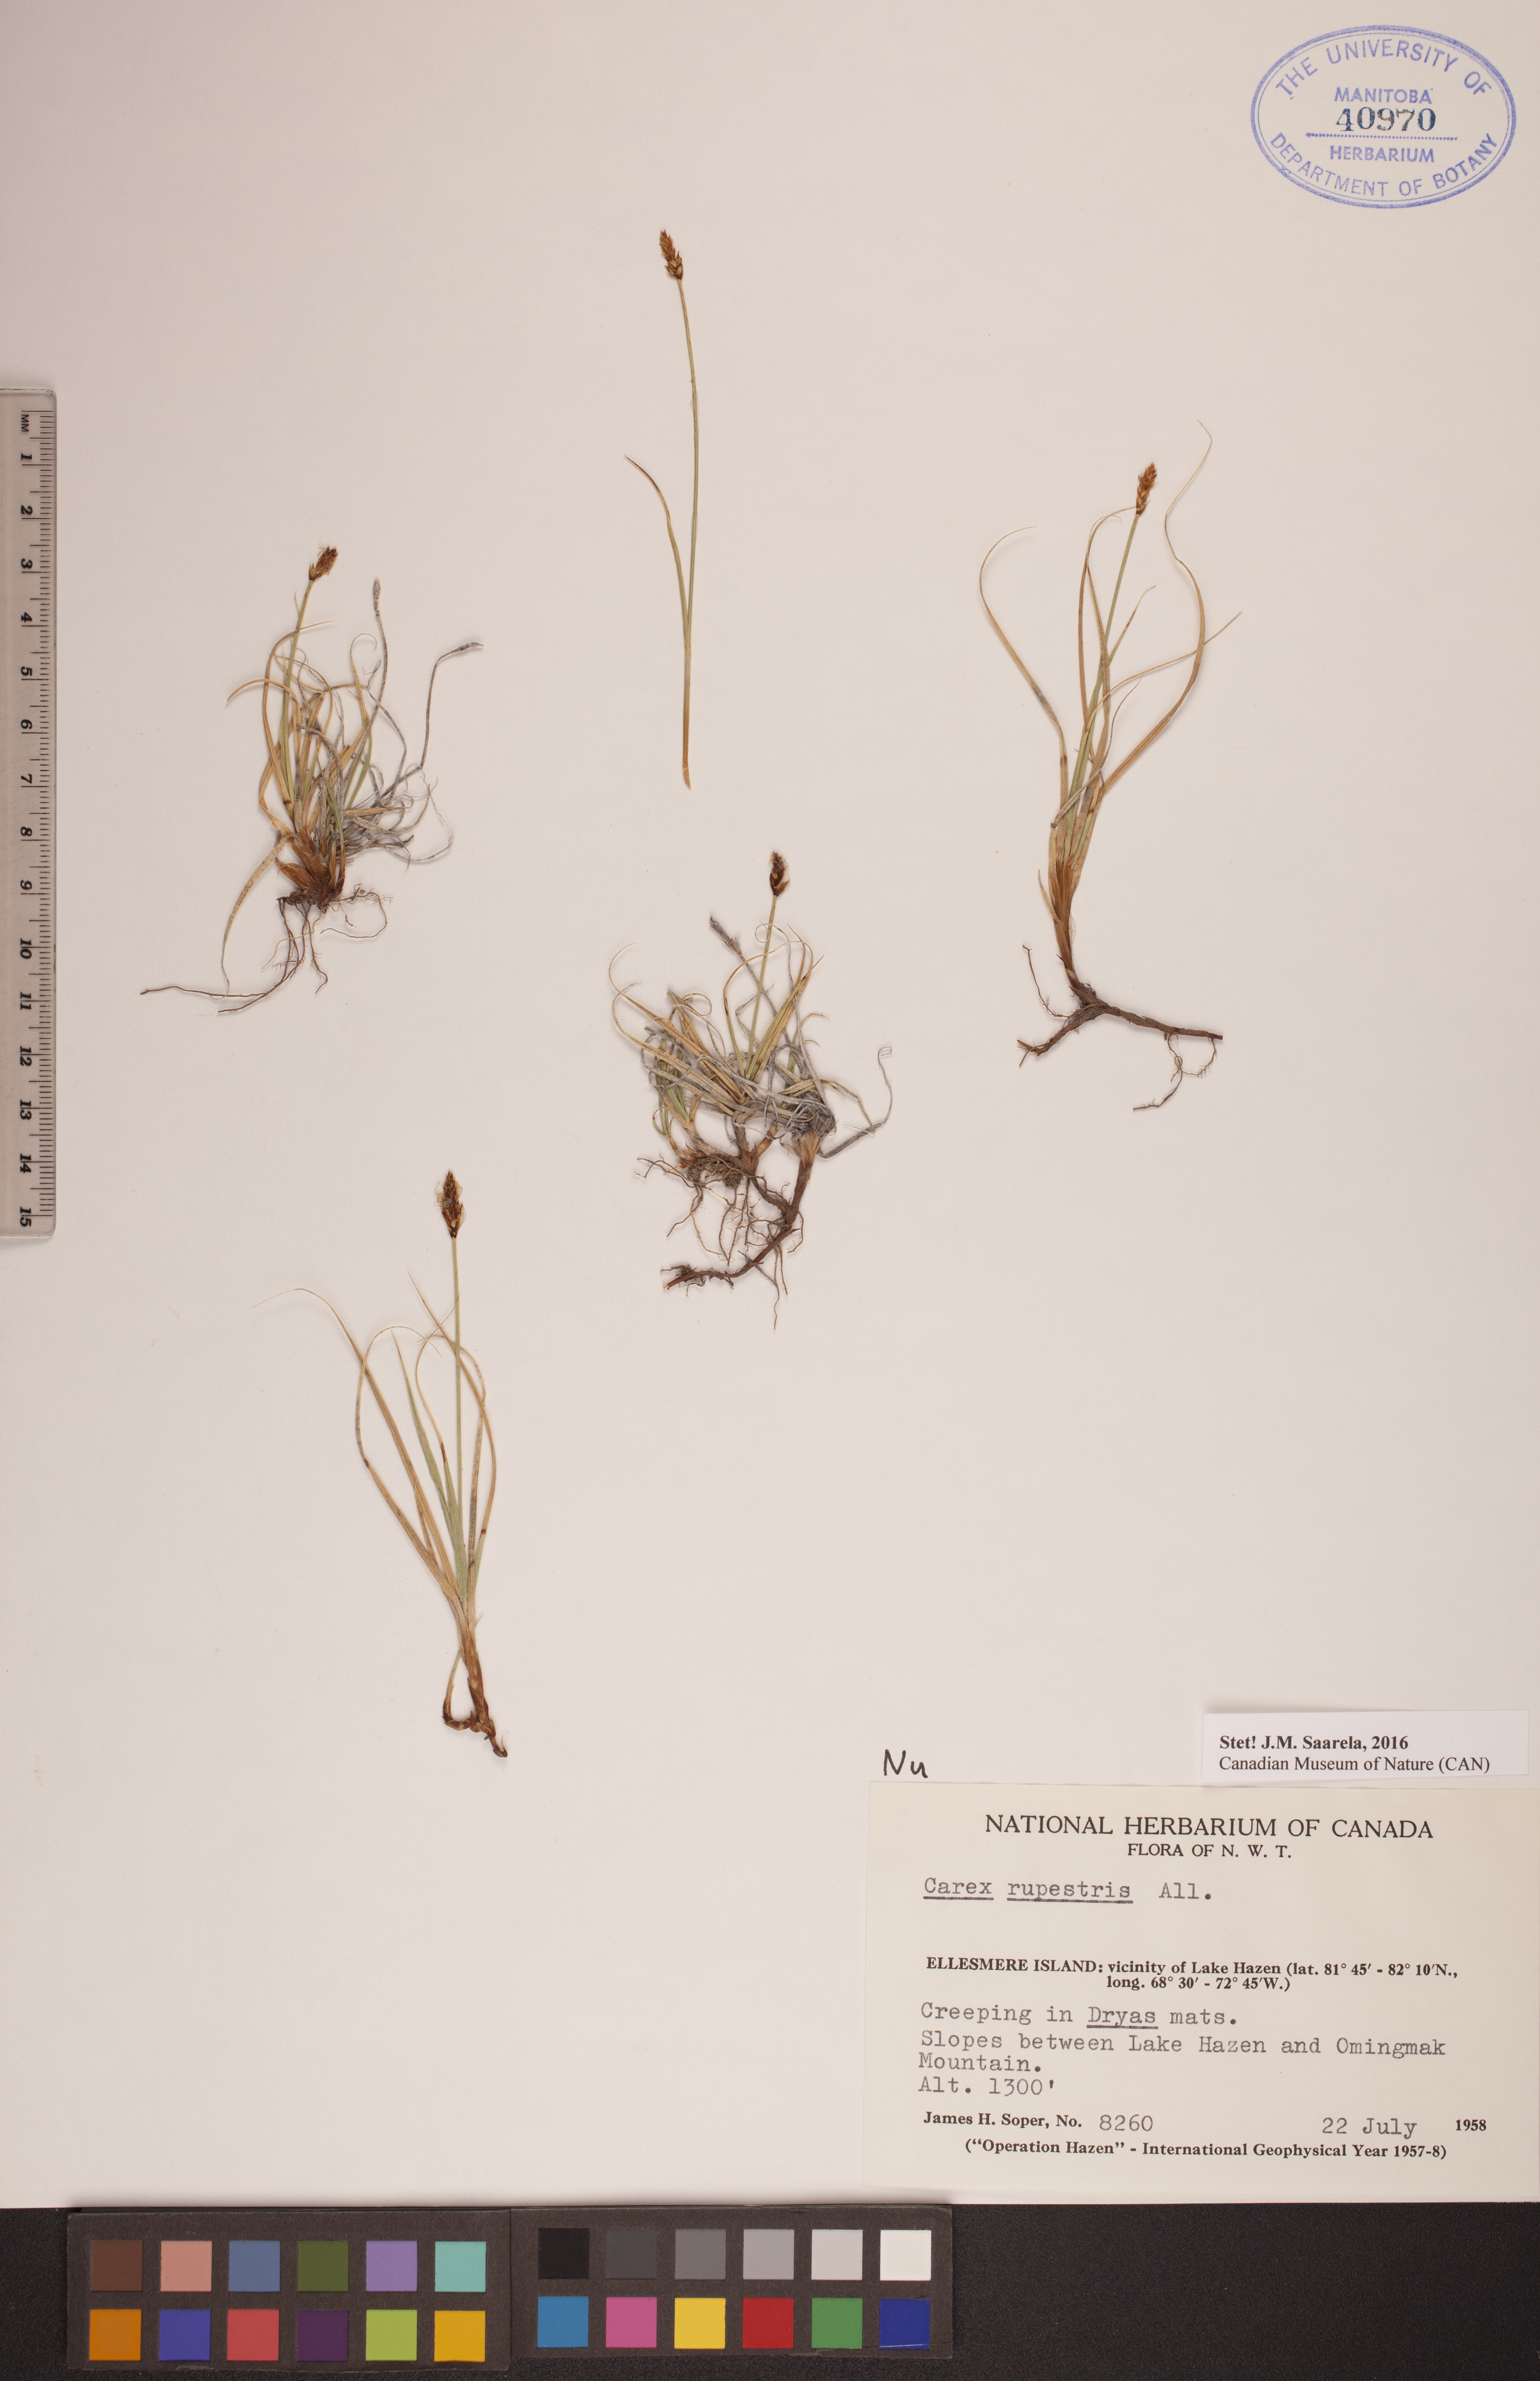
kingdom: Plantae
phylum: Tracheophyta
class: Liliopsida
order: Poales
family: Cyperaceae
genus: Carex
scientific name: Carex rupestris
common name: Rock sedge
